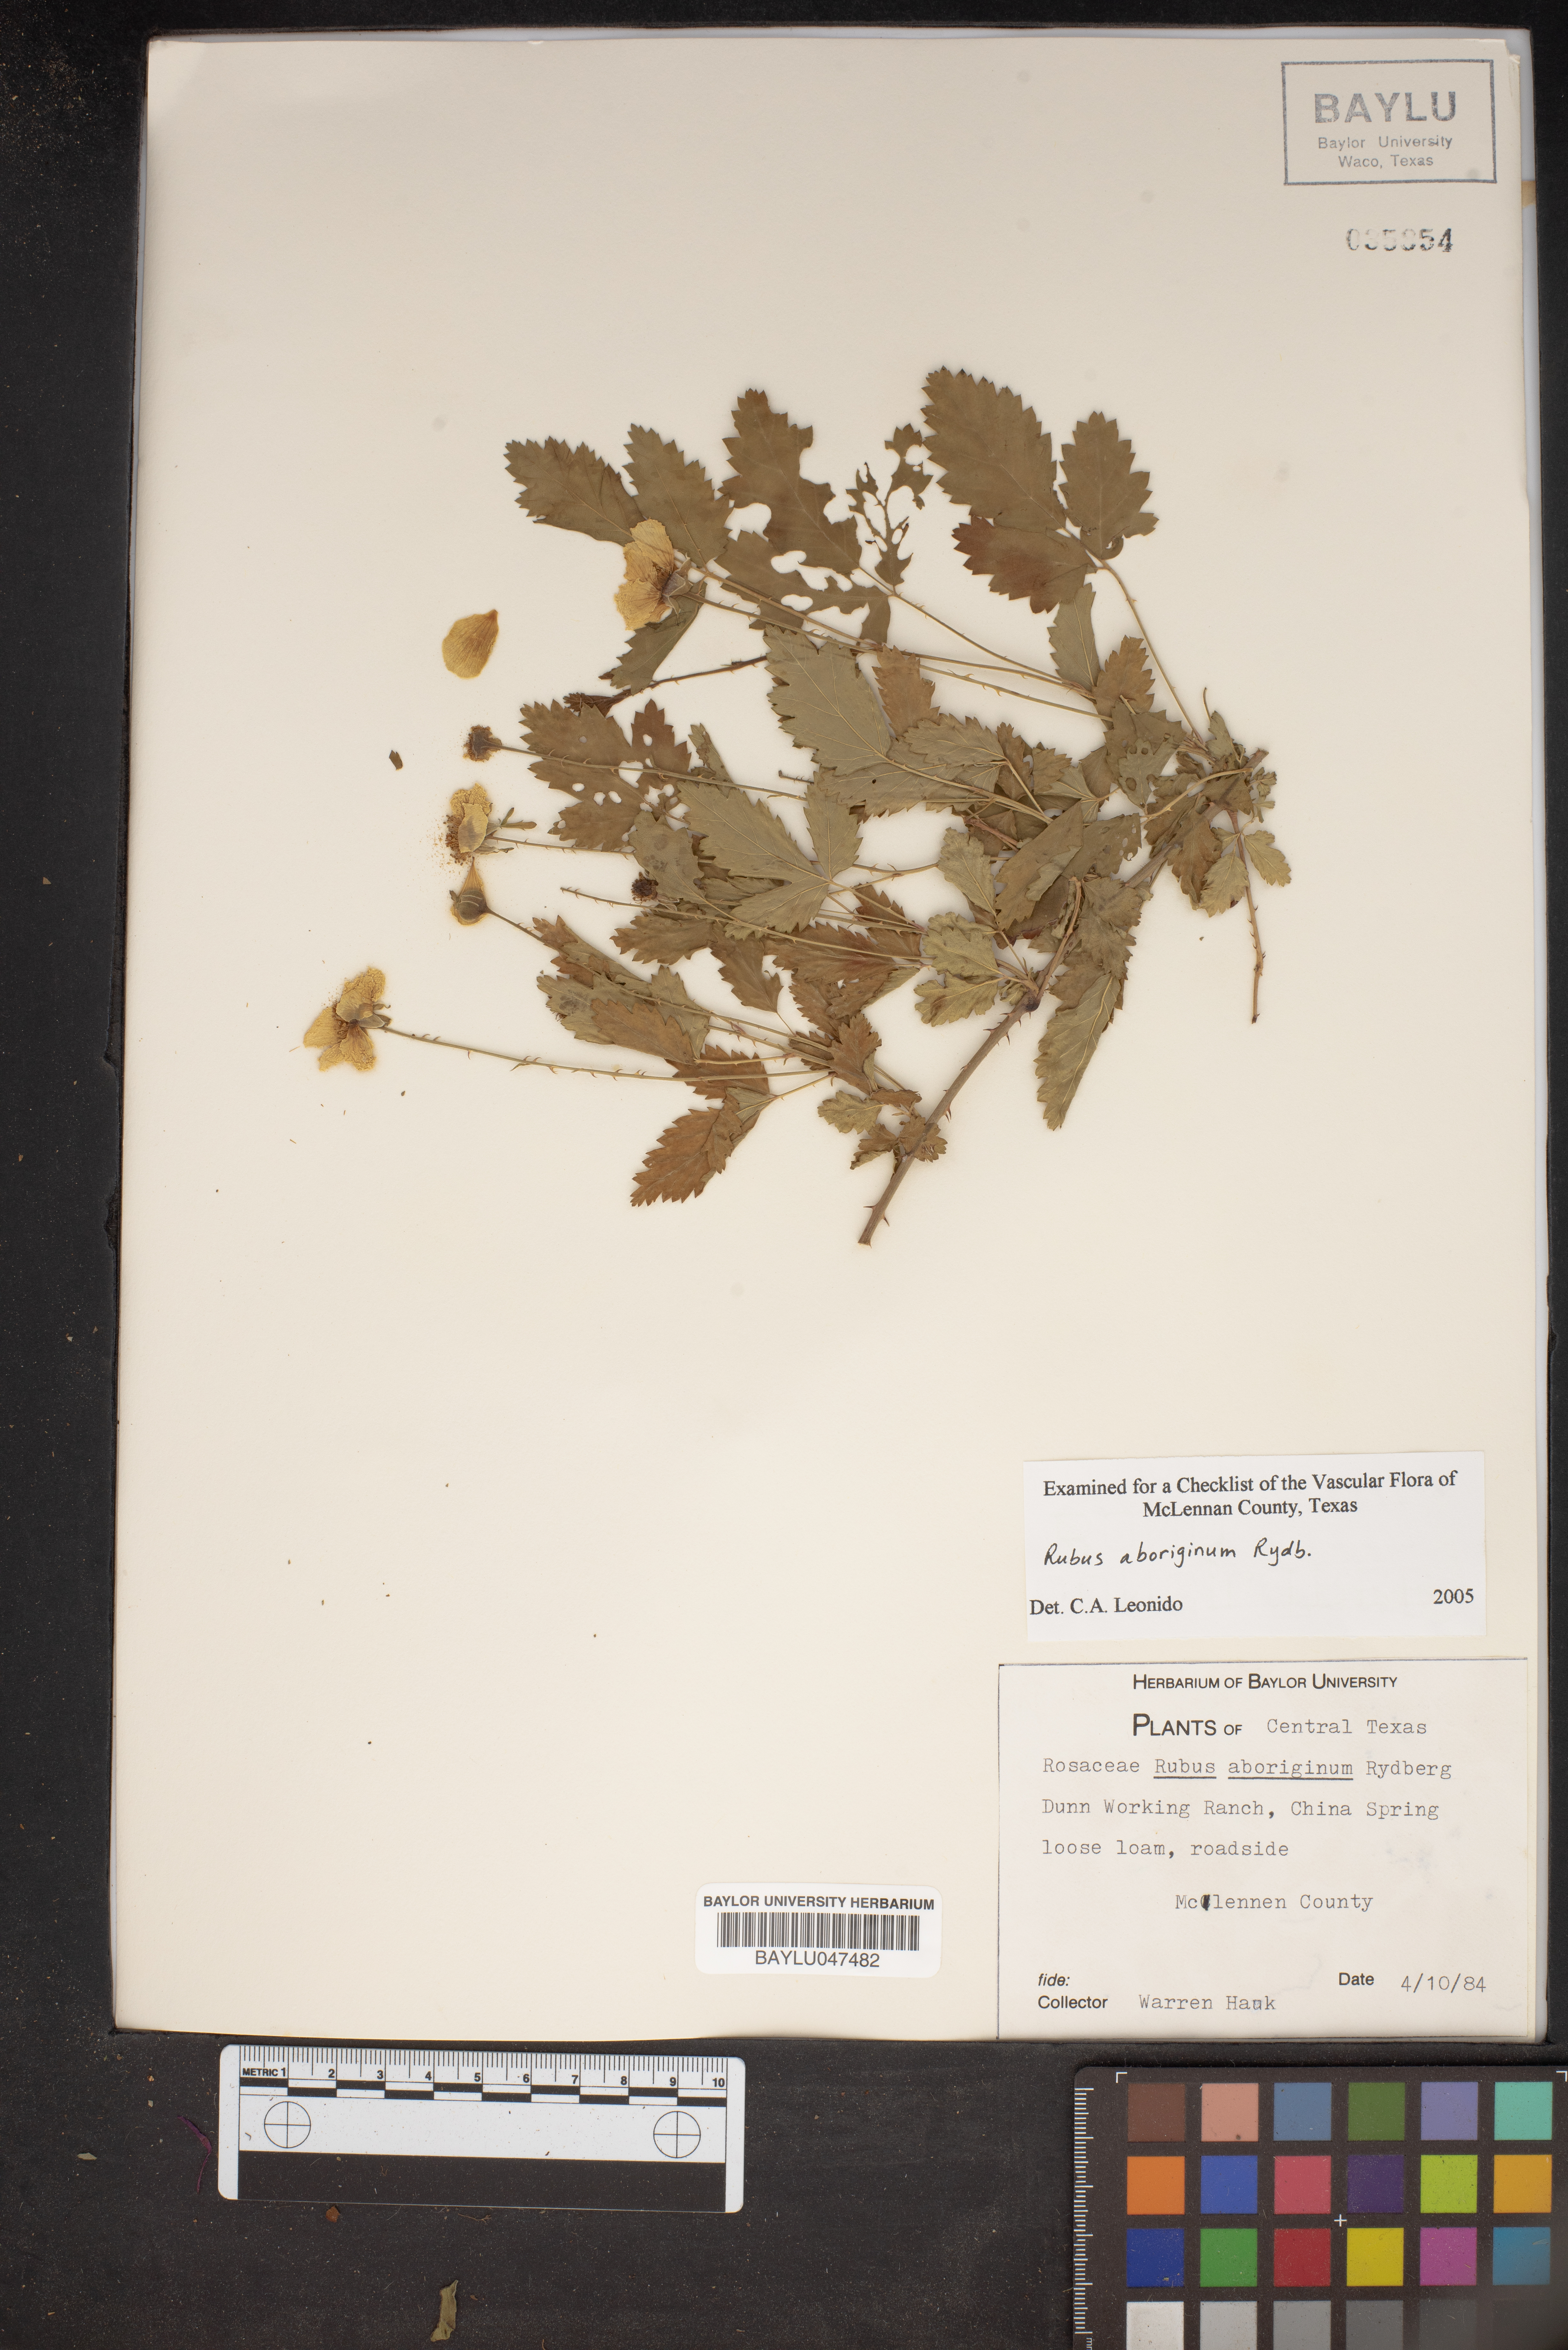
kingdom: Plantae
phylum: Tracheophyta
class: Magnoliopsida
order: Rosales
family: Rosaceae
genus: Rubus
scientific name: Rubus aboriginum
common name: Mayes dewberry
